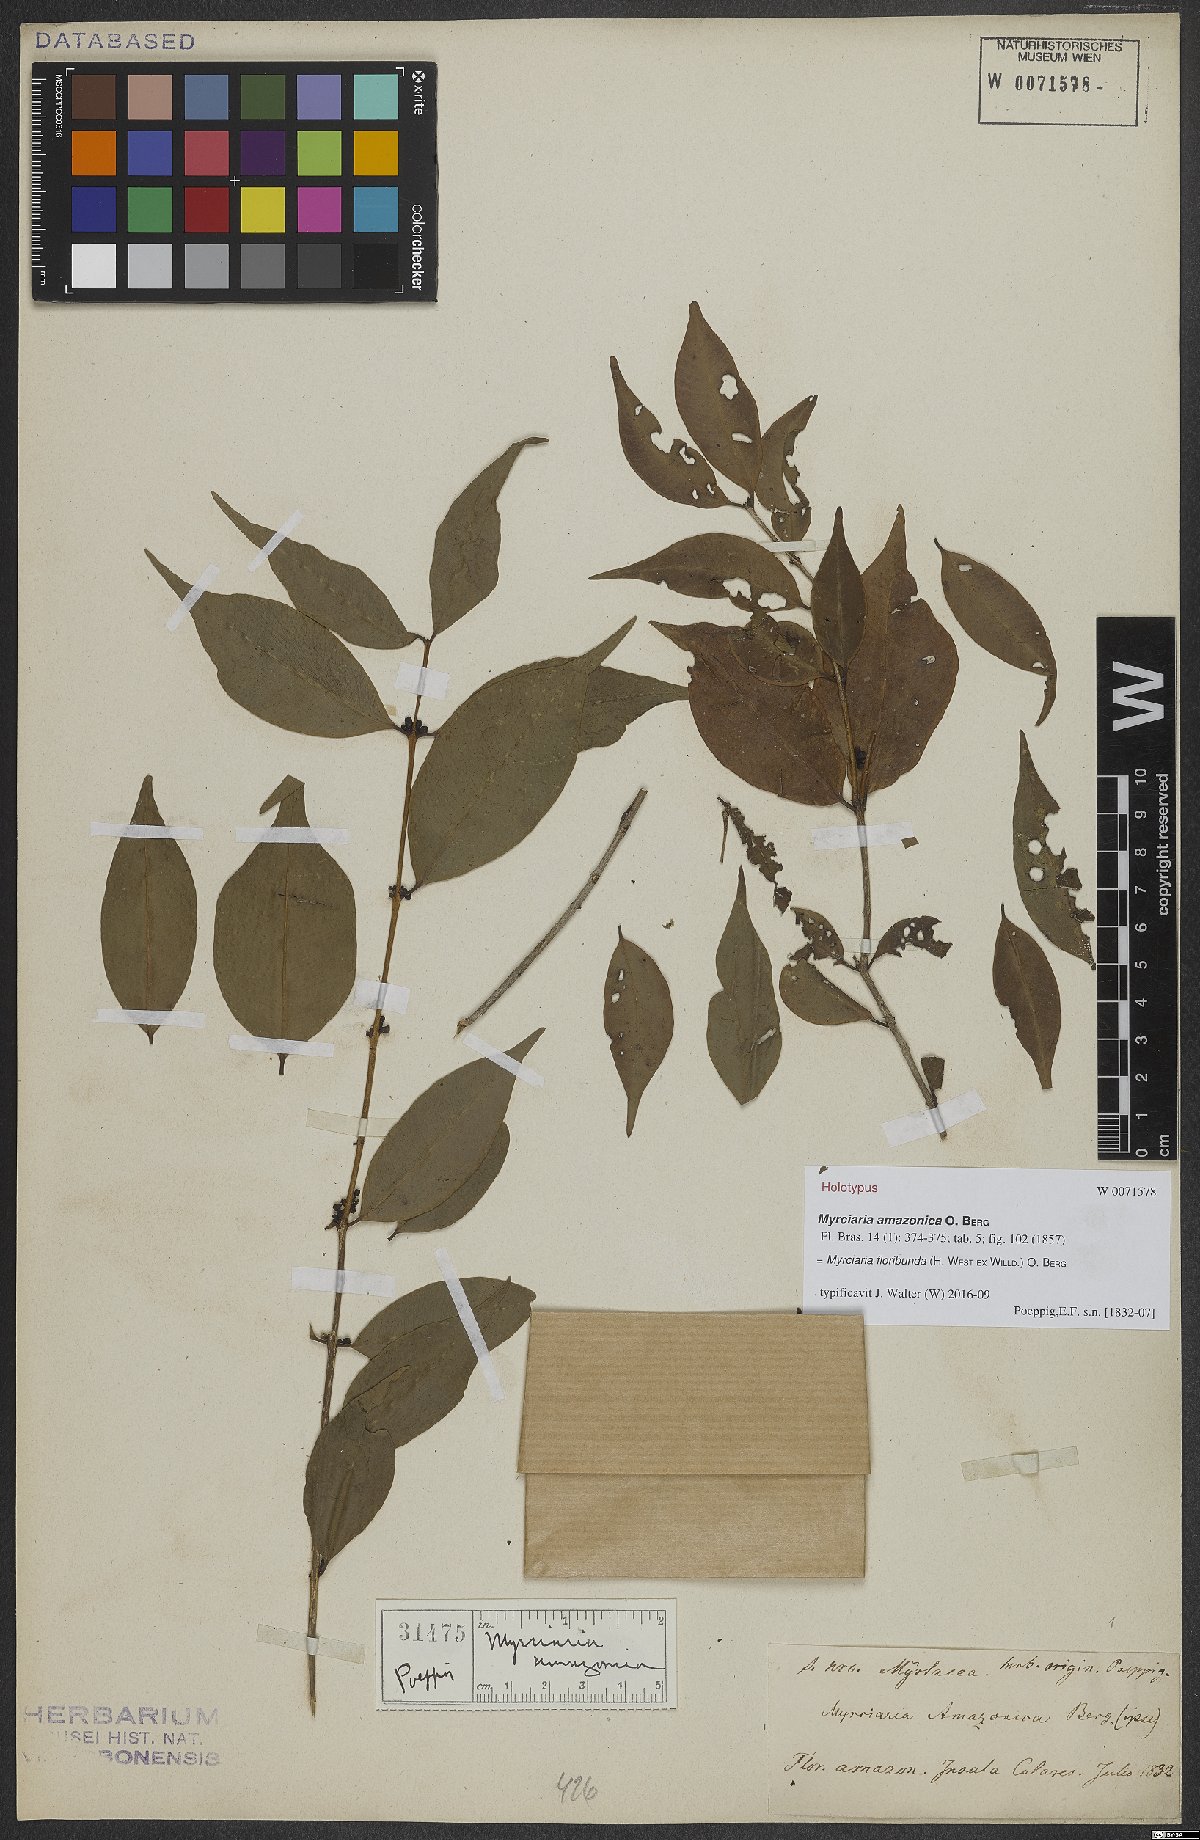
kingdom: Plantae
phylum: Tracheophyta
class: Magnoliopsida
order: Myrtales
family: Myrtaceae
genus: Myrciaria
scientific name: Myrciaria floribunda
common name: Guavaberry
